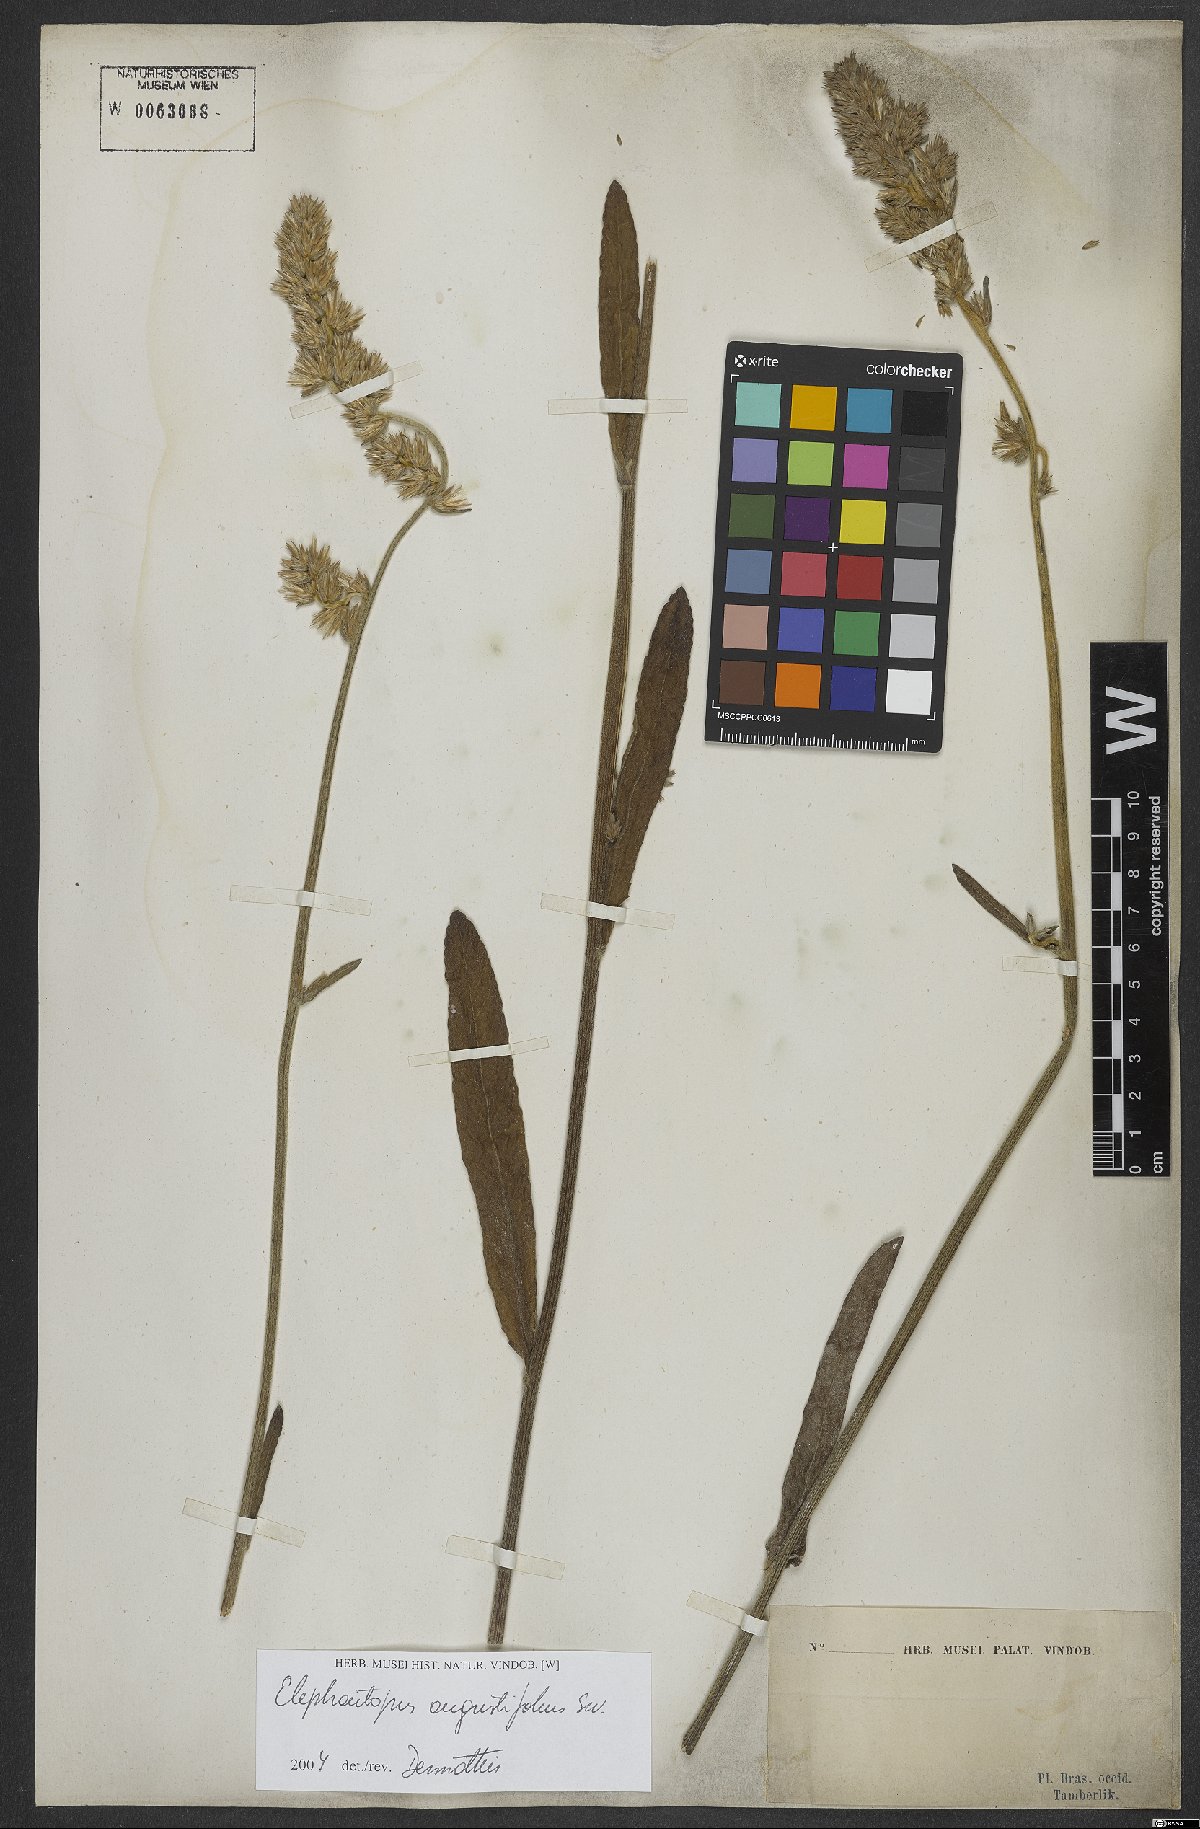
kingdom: Plantae
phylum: Tracheophyta
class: Magnoliopsida
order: Asterales
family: Asteraceae
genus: Orthopappus
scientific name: Orthopappus angustifolius
